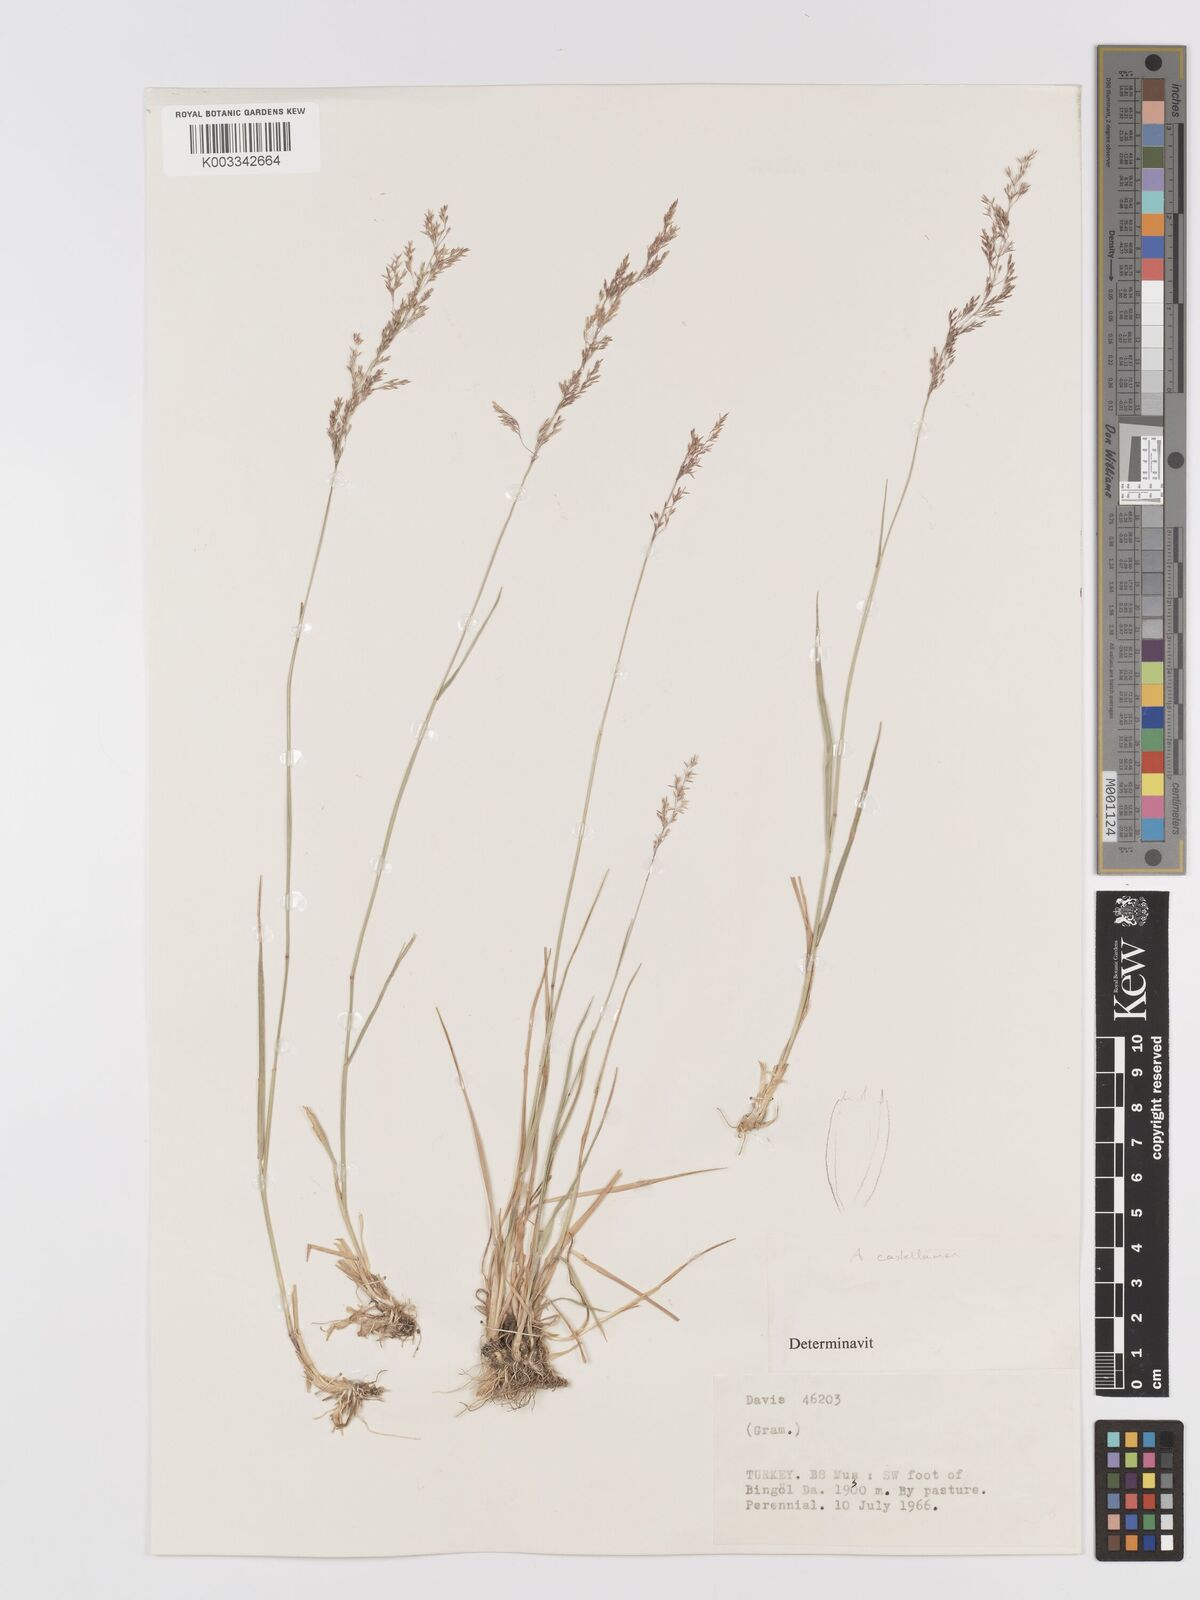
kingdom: Plantae
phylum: Tracheophyta
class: Liliopsida
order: Poales
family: Poaceae
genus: Agrostis
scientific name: Agrostis castellana
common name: Highland bent
